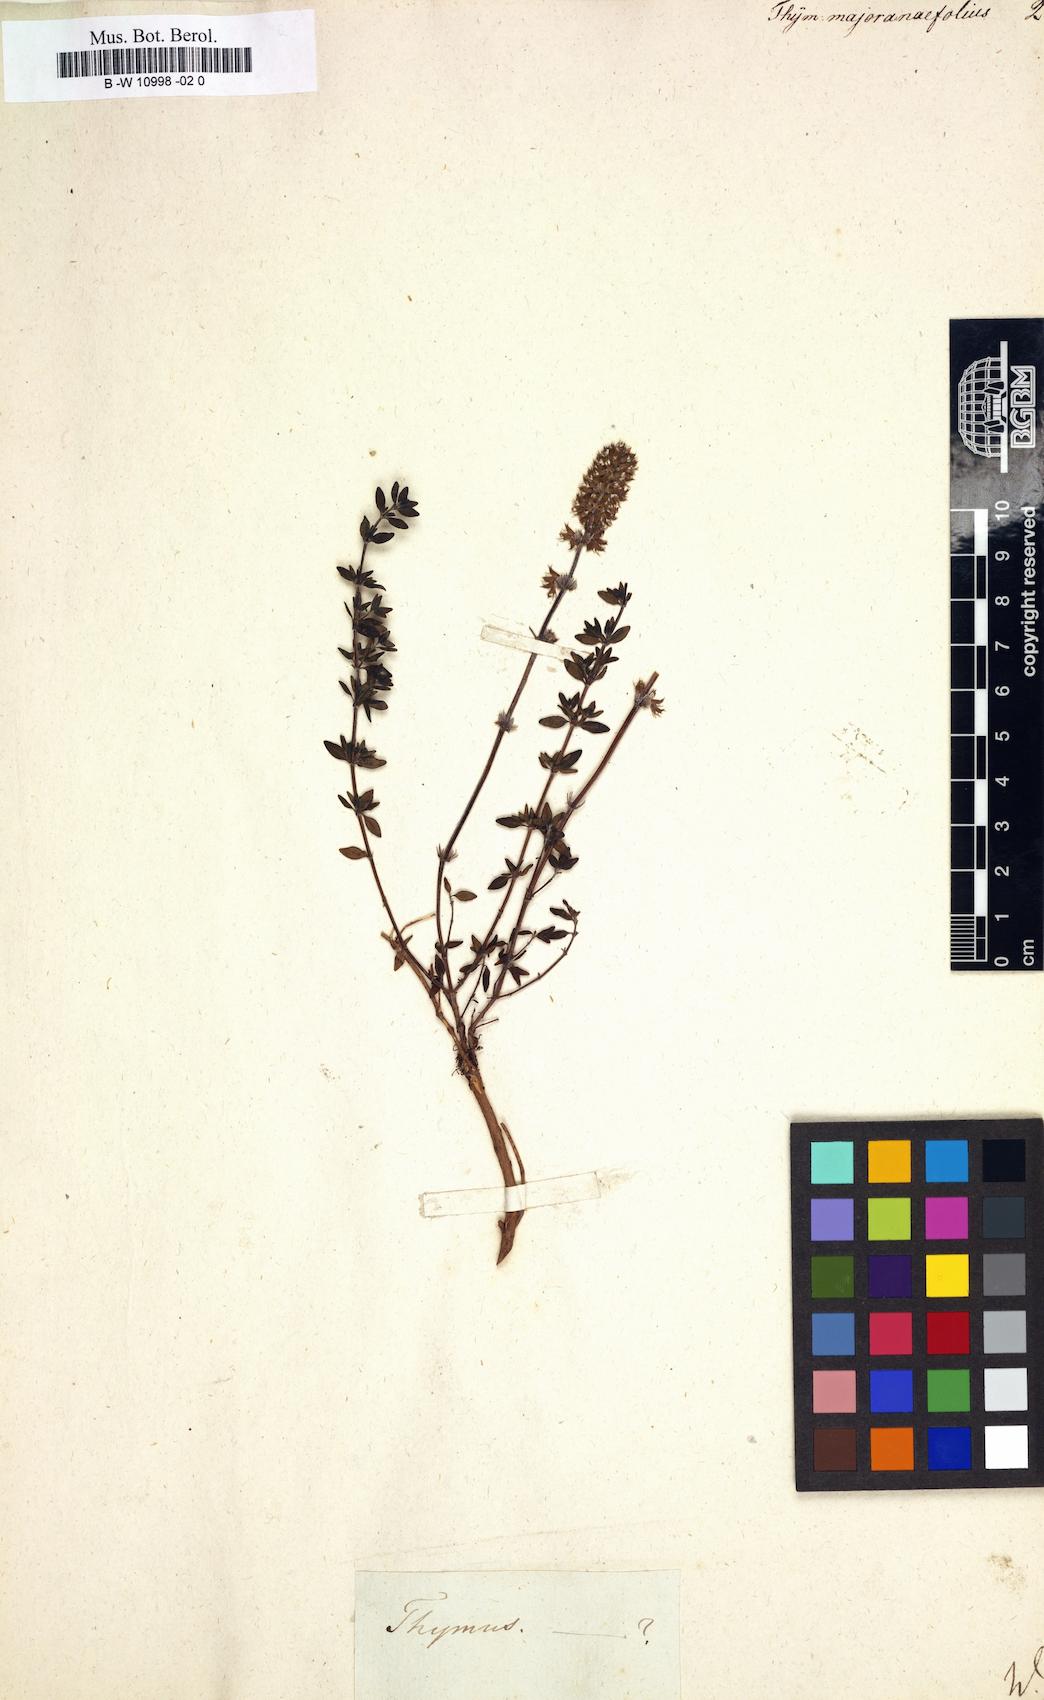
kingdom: Plantae
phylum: Tracheophyta
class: Magnoliopsida
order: Lamiales
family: Lamiaceae
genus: Thymus
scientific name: Thymus serpyllum
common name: Breckland thyme
